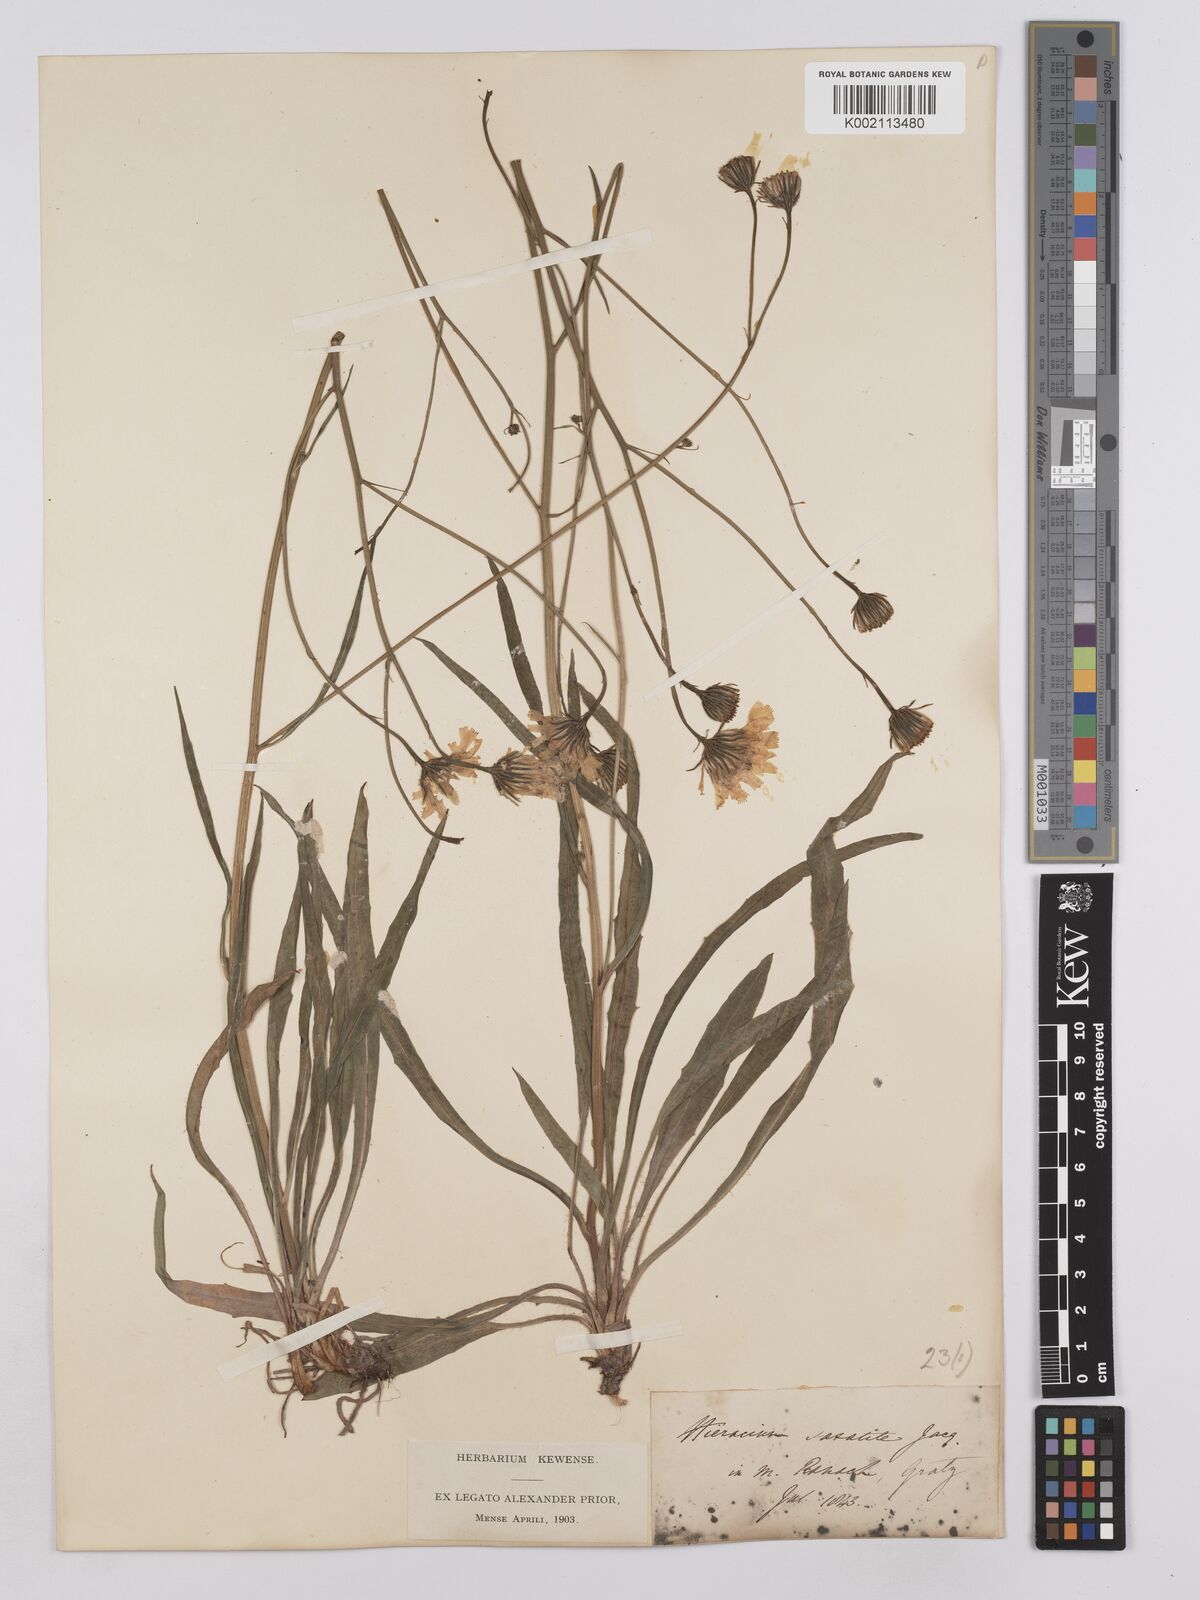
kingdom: Plantae
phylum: Tracheophyta
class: Magnoliopsida
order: Asterales
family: Asteraceae
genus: Hieracium
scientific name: Hieracium saxatile
